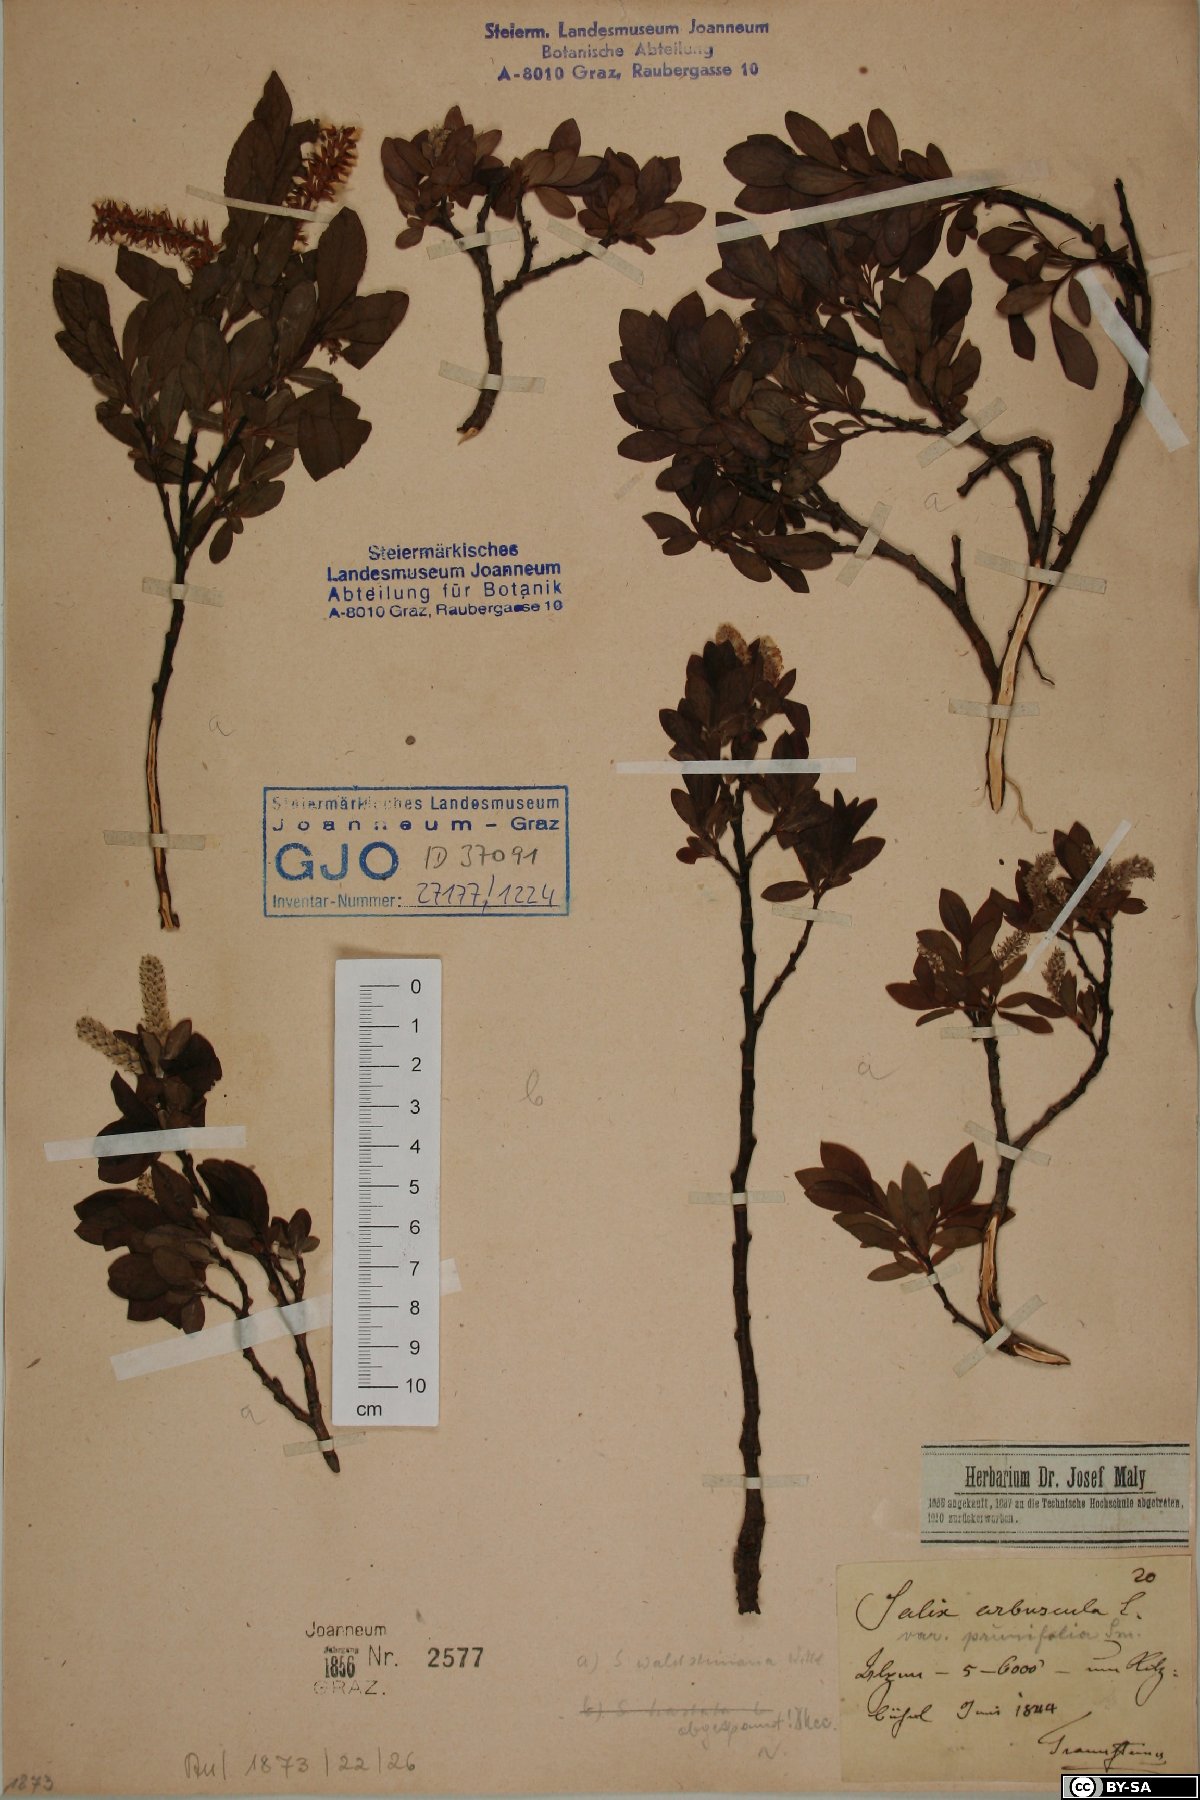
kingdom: Plantae
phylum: Tracheophyta
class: Magnoliopsida
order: Malpighiales
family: Salicaceae
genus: Salix
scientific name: Salix waldsteiniana
